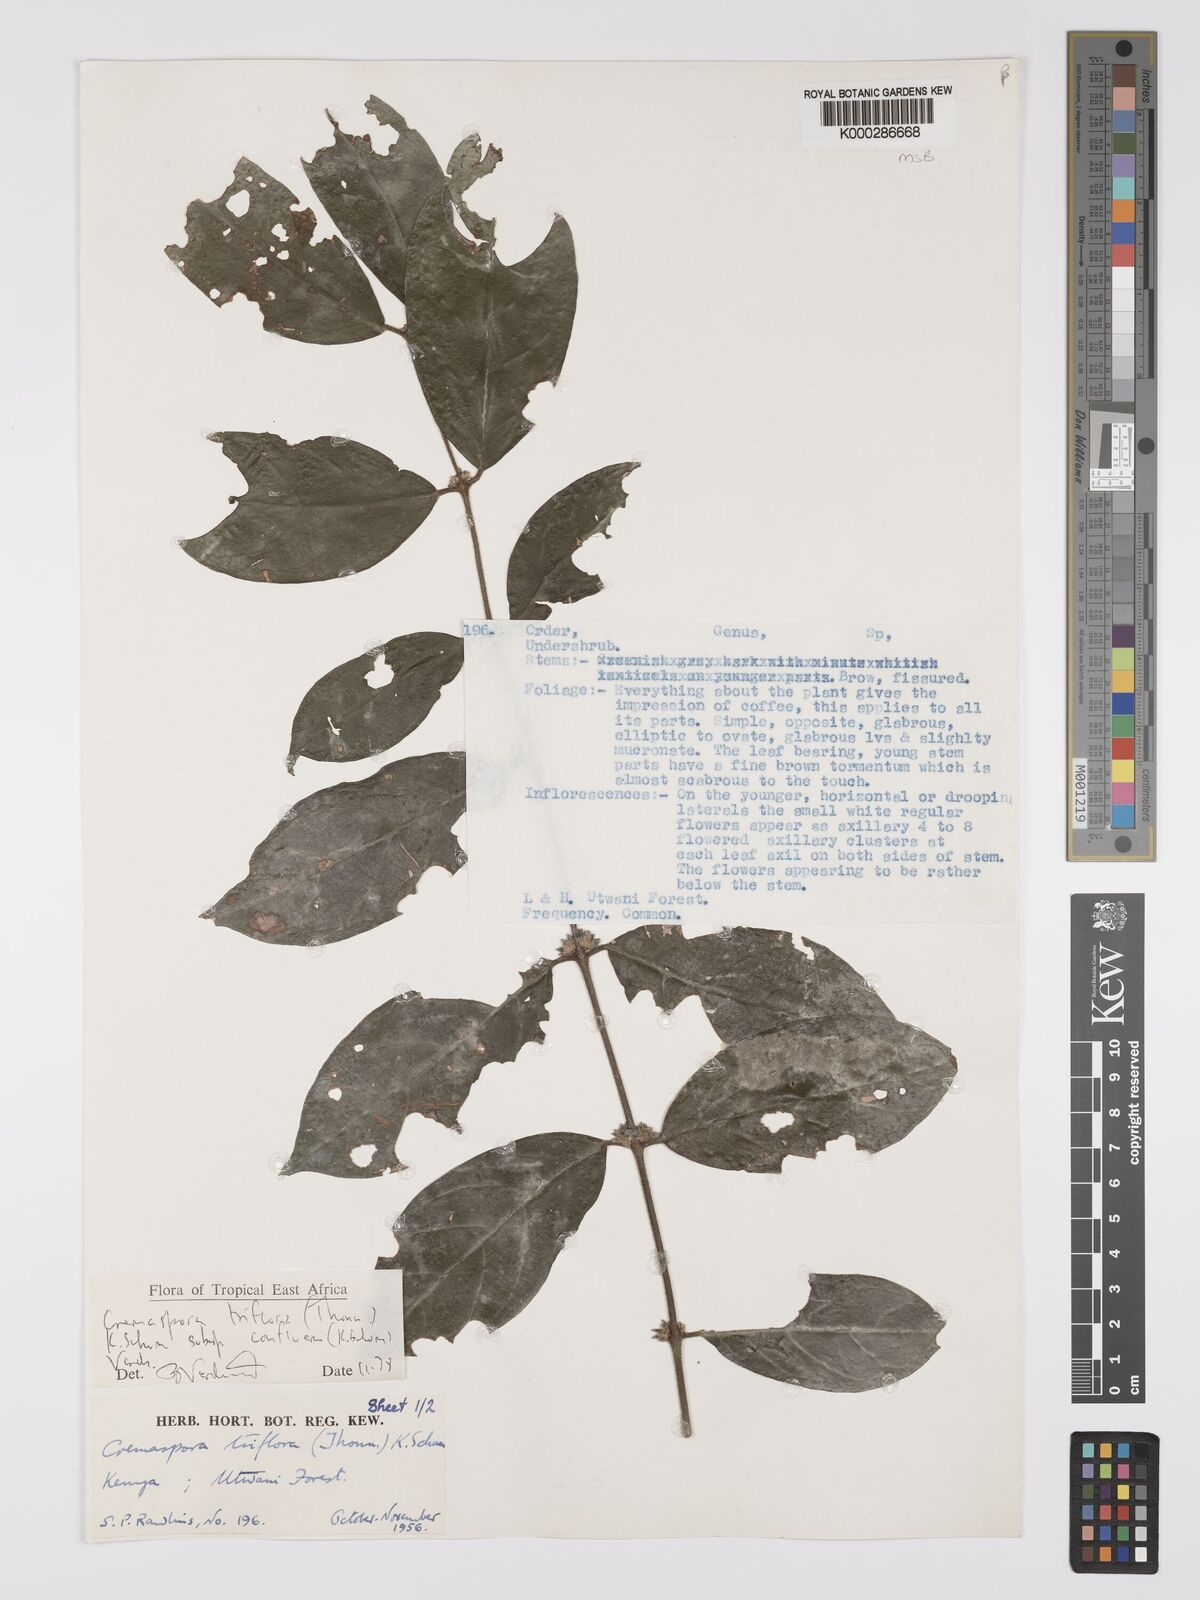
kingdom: Plantae
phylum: Tracheophyta
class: Magnoliopsida
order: Gentianales
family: Rubiaceae
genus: Cremaspora
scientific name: Cremaspora triflora
